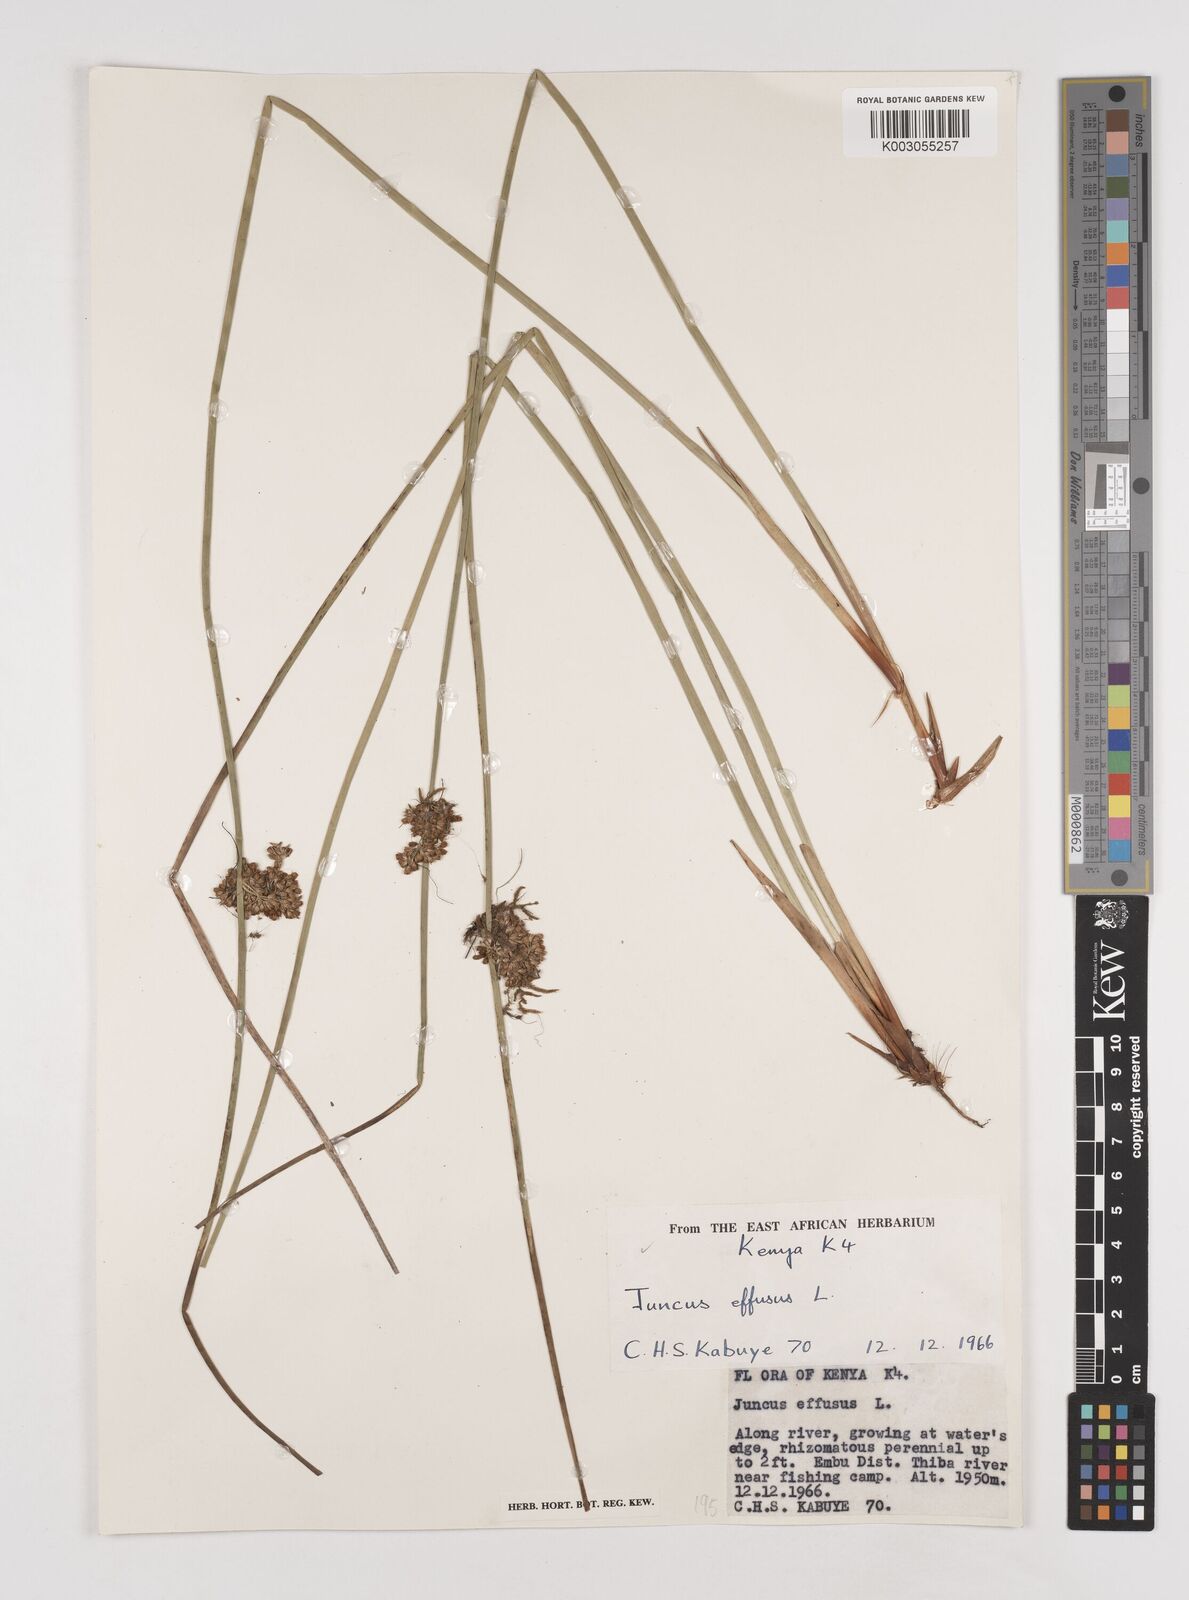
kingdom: Plantae
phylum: Tracheophyta
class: Liliopsida
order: Poales
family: Juncaceae
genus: Juncus
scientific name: Juncus effusus
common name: Soft rush
